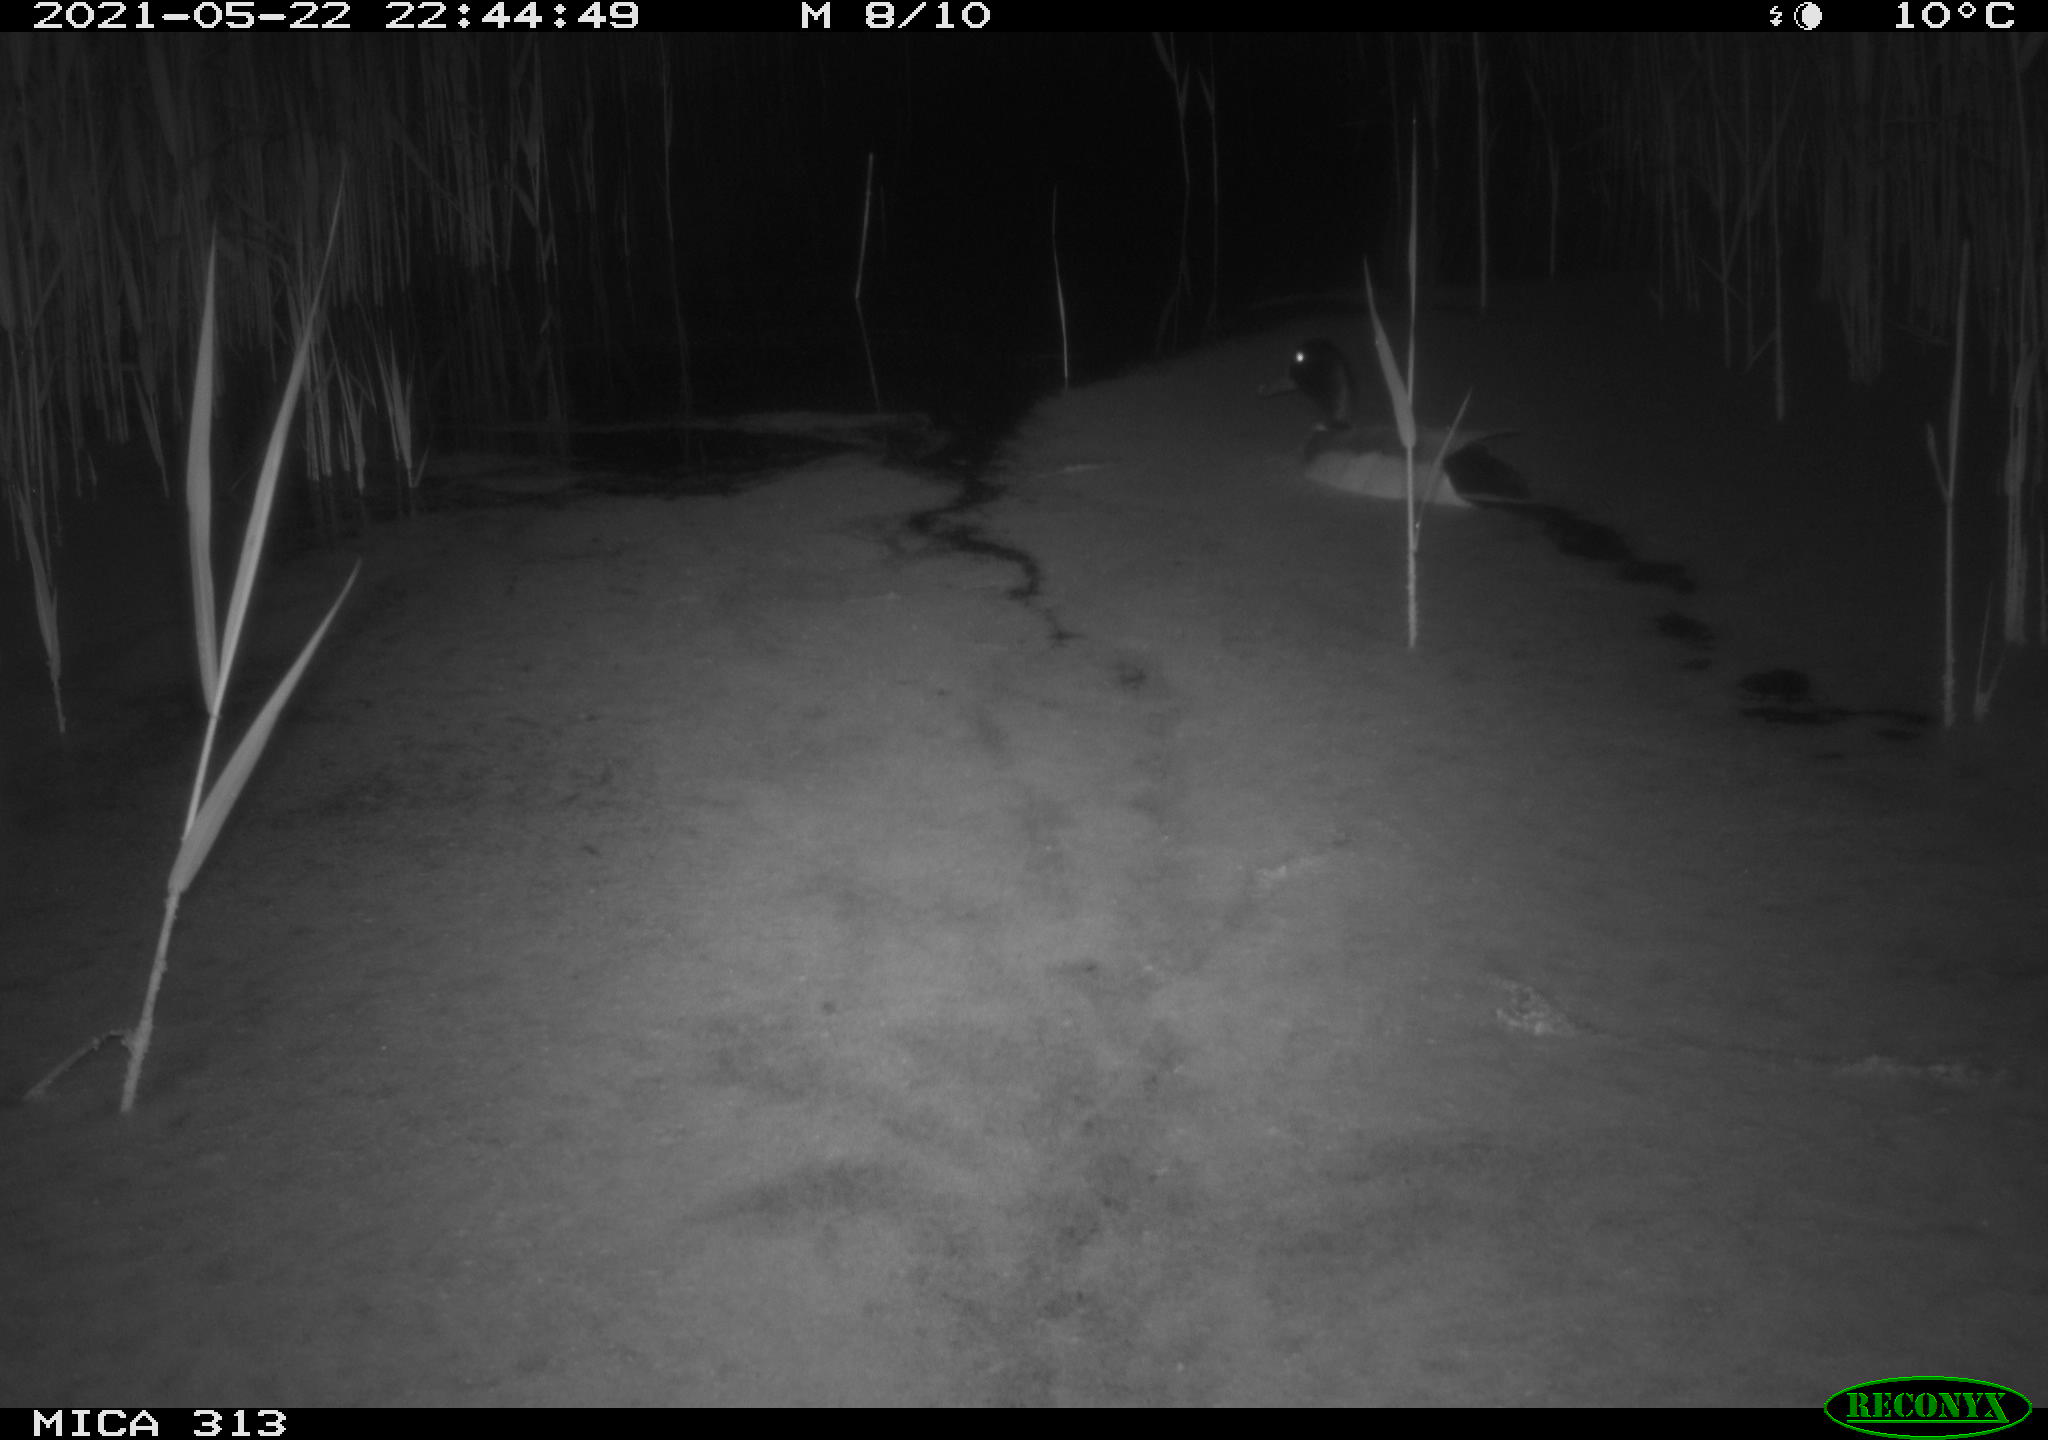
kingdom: Animalia
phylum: Chordata
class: Aves
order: Anseriformes
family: Anatidae
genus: Anas
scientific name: Anas platyrhynchos
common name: Mallard
